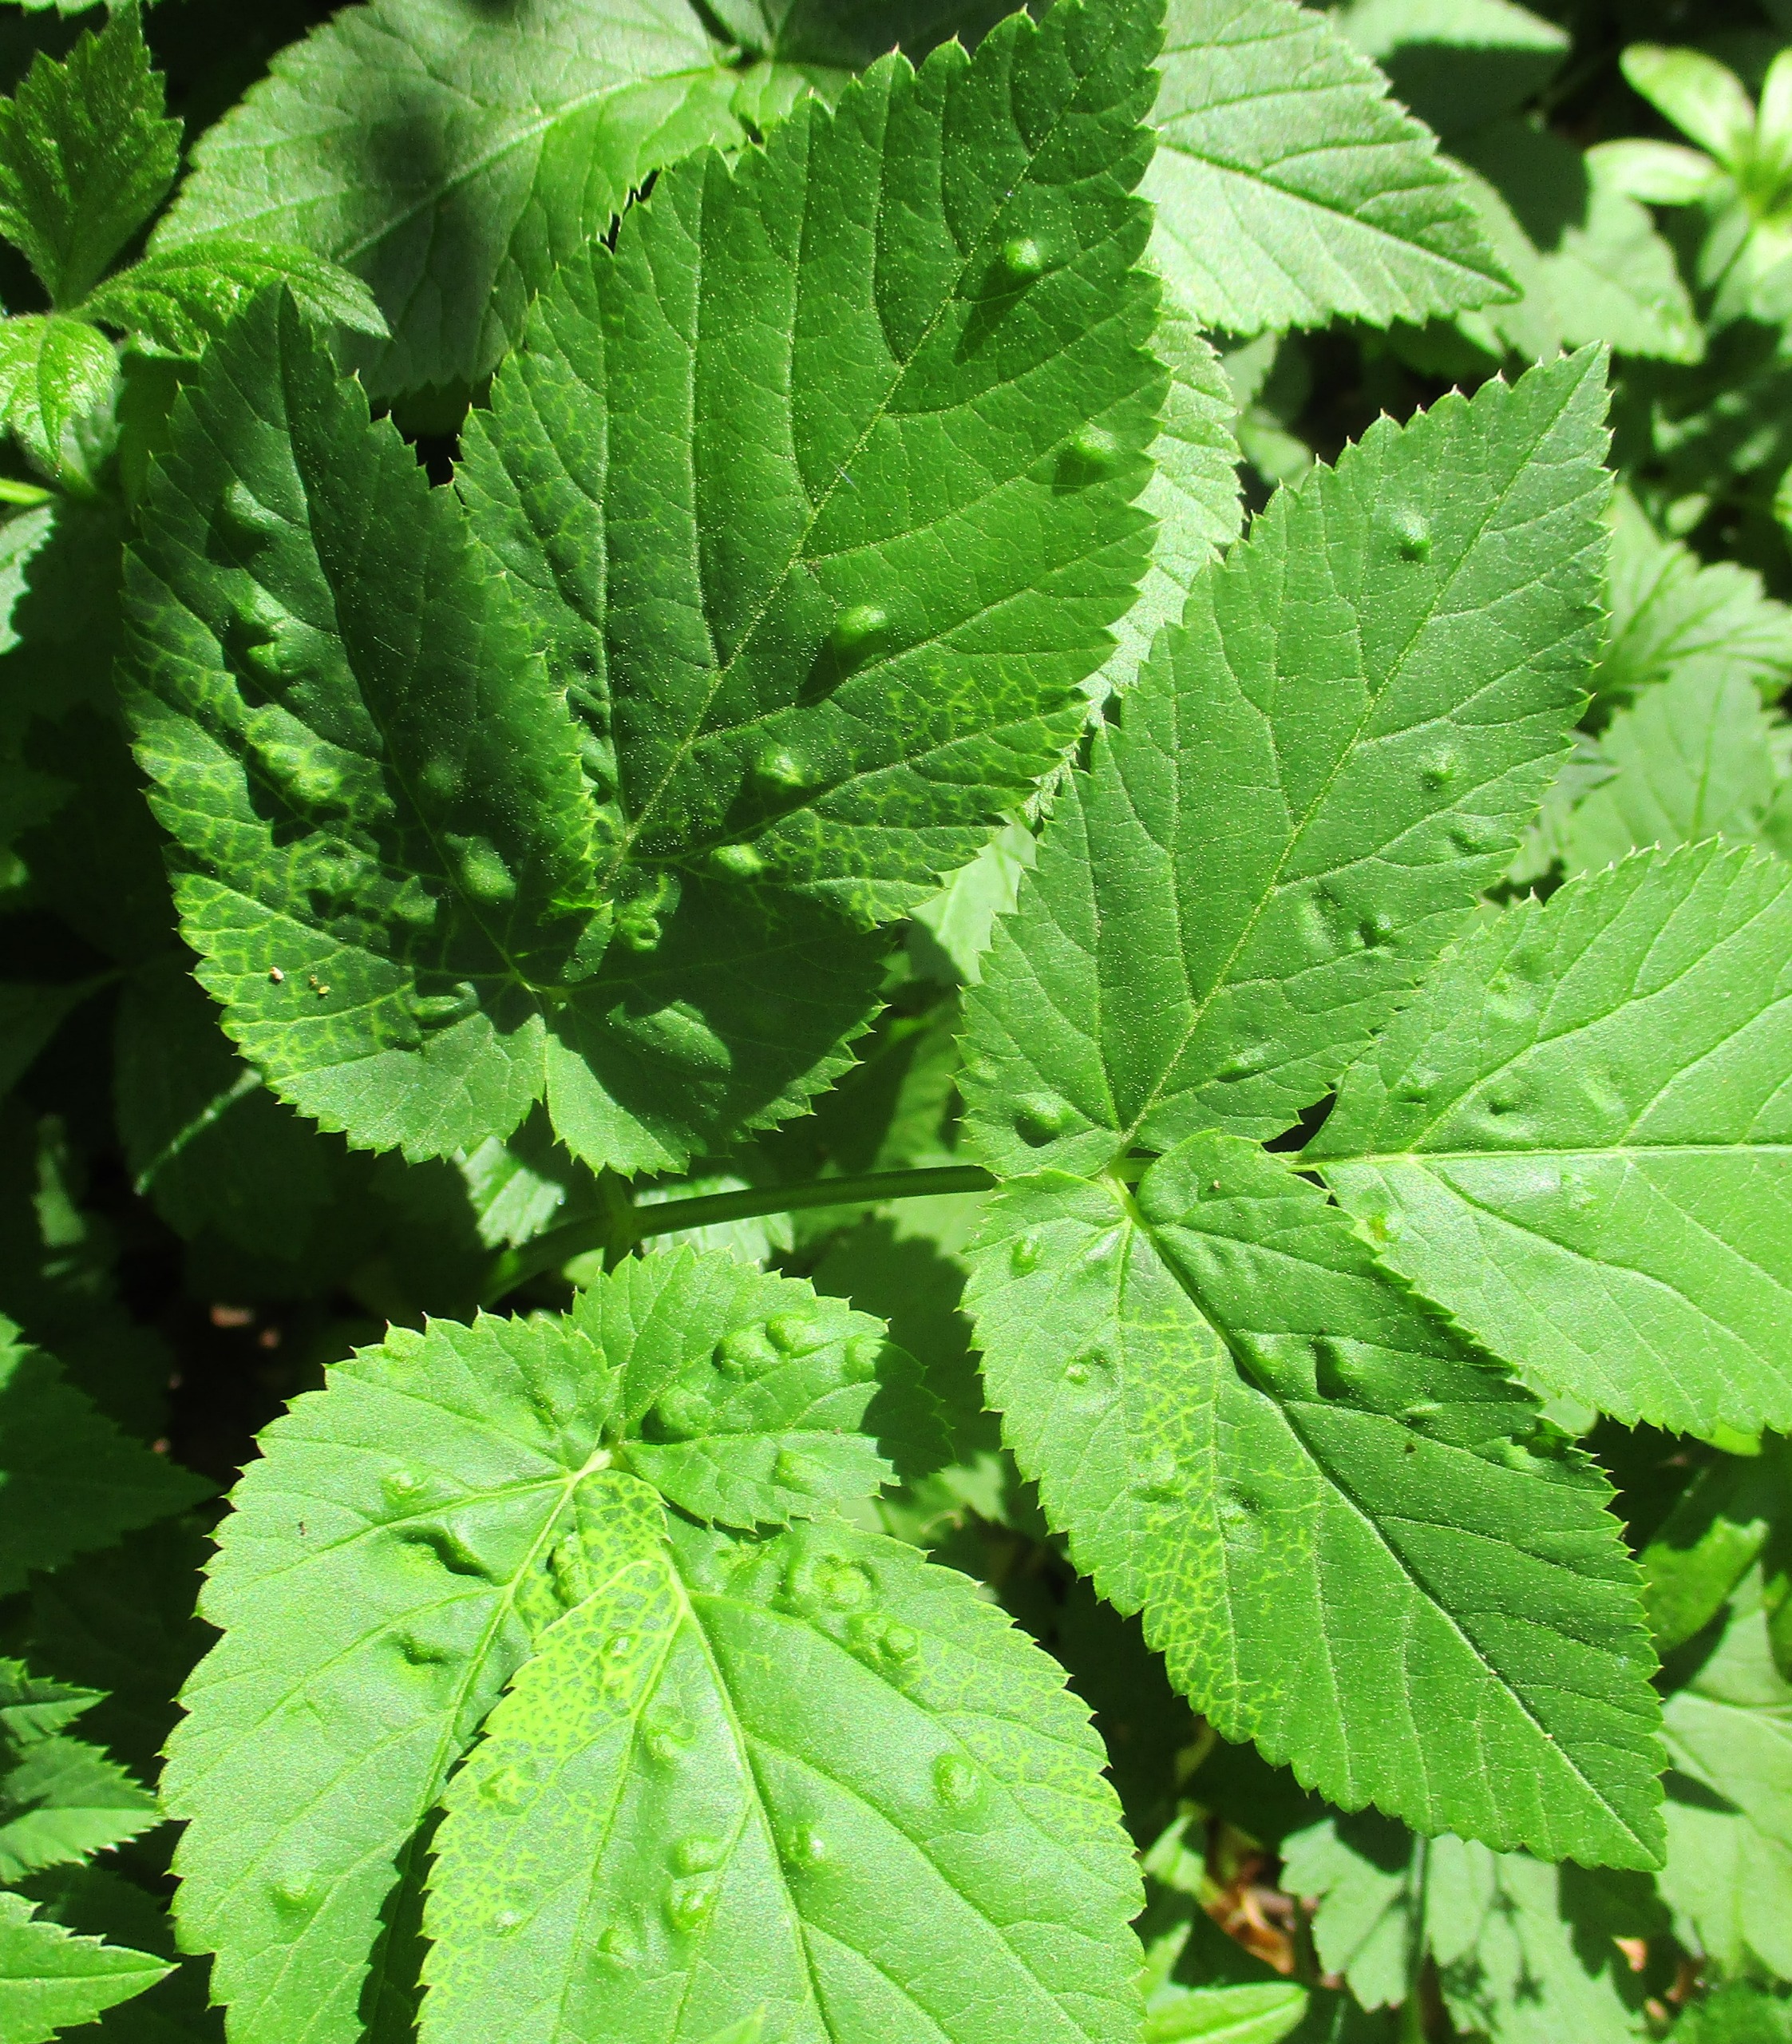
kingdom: Plantae
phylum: Tracheophyta
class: Magnoliopsida
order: Apiales
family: Apiaceae
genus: Aegopodium
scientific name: Aegopodium podagraria
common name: Skvalderkål
